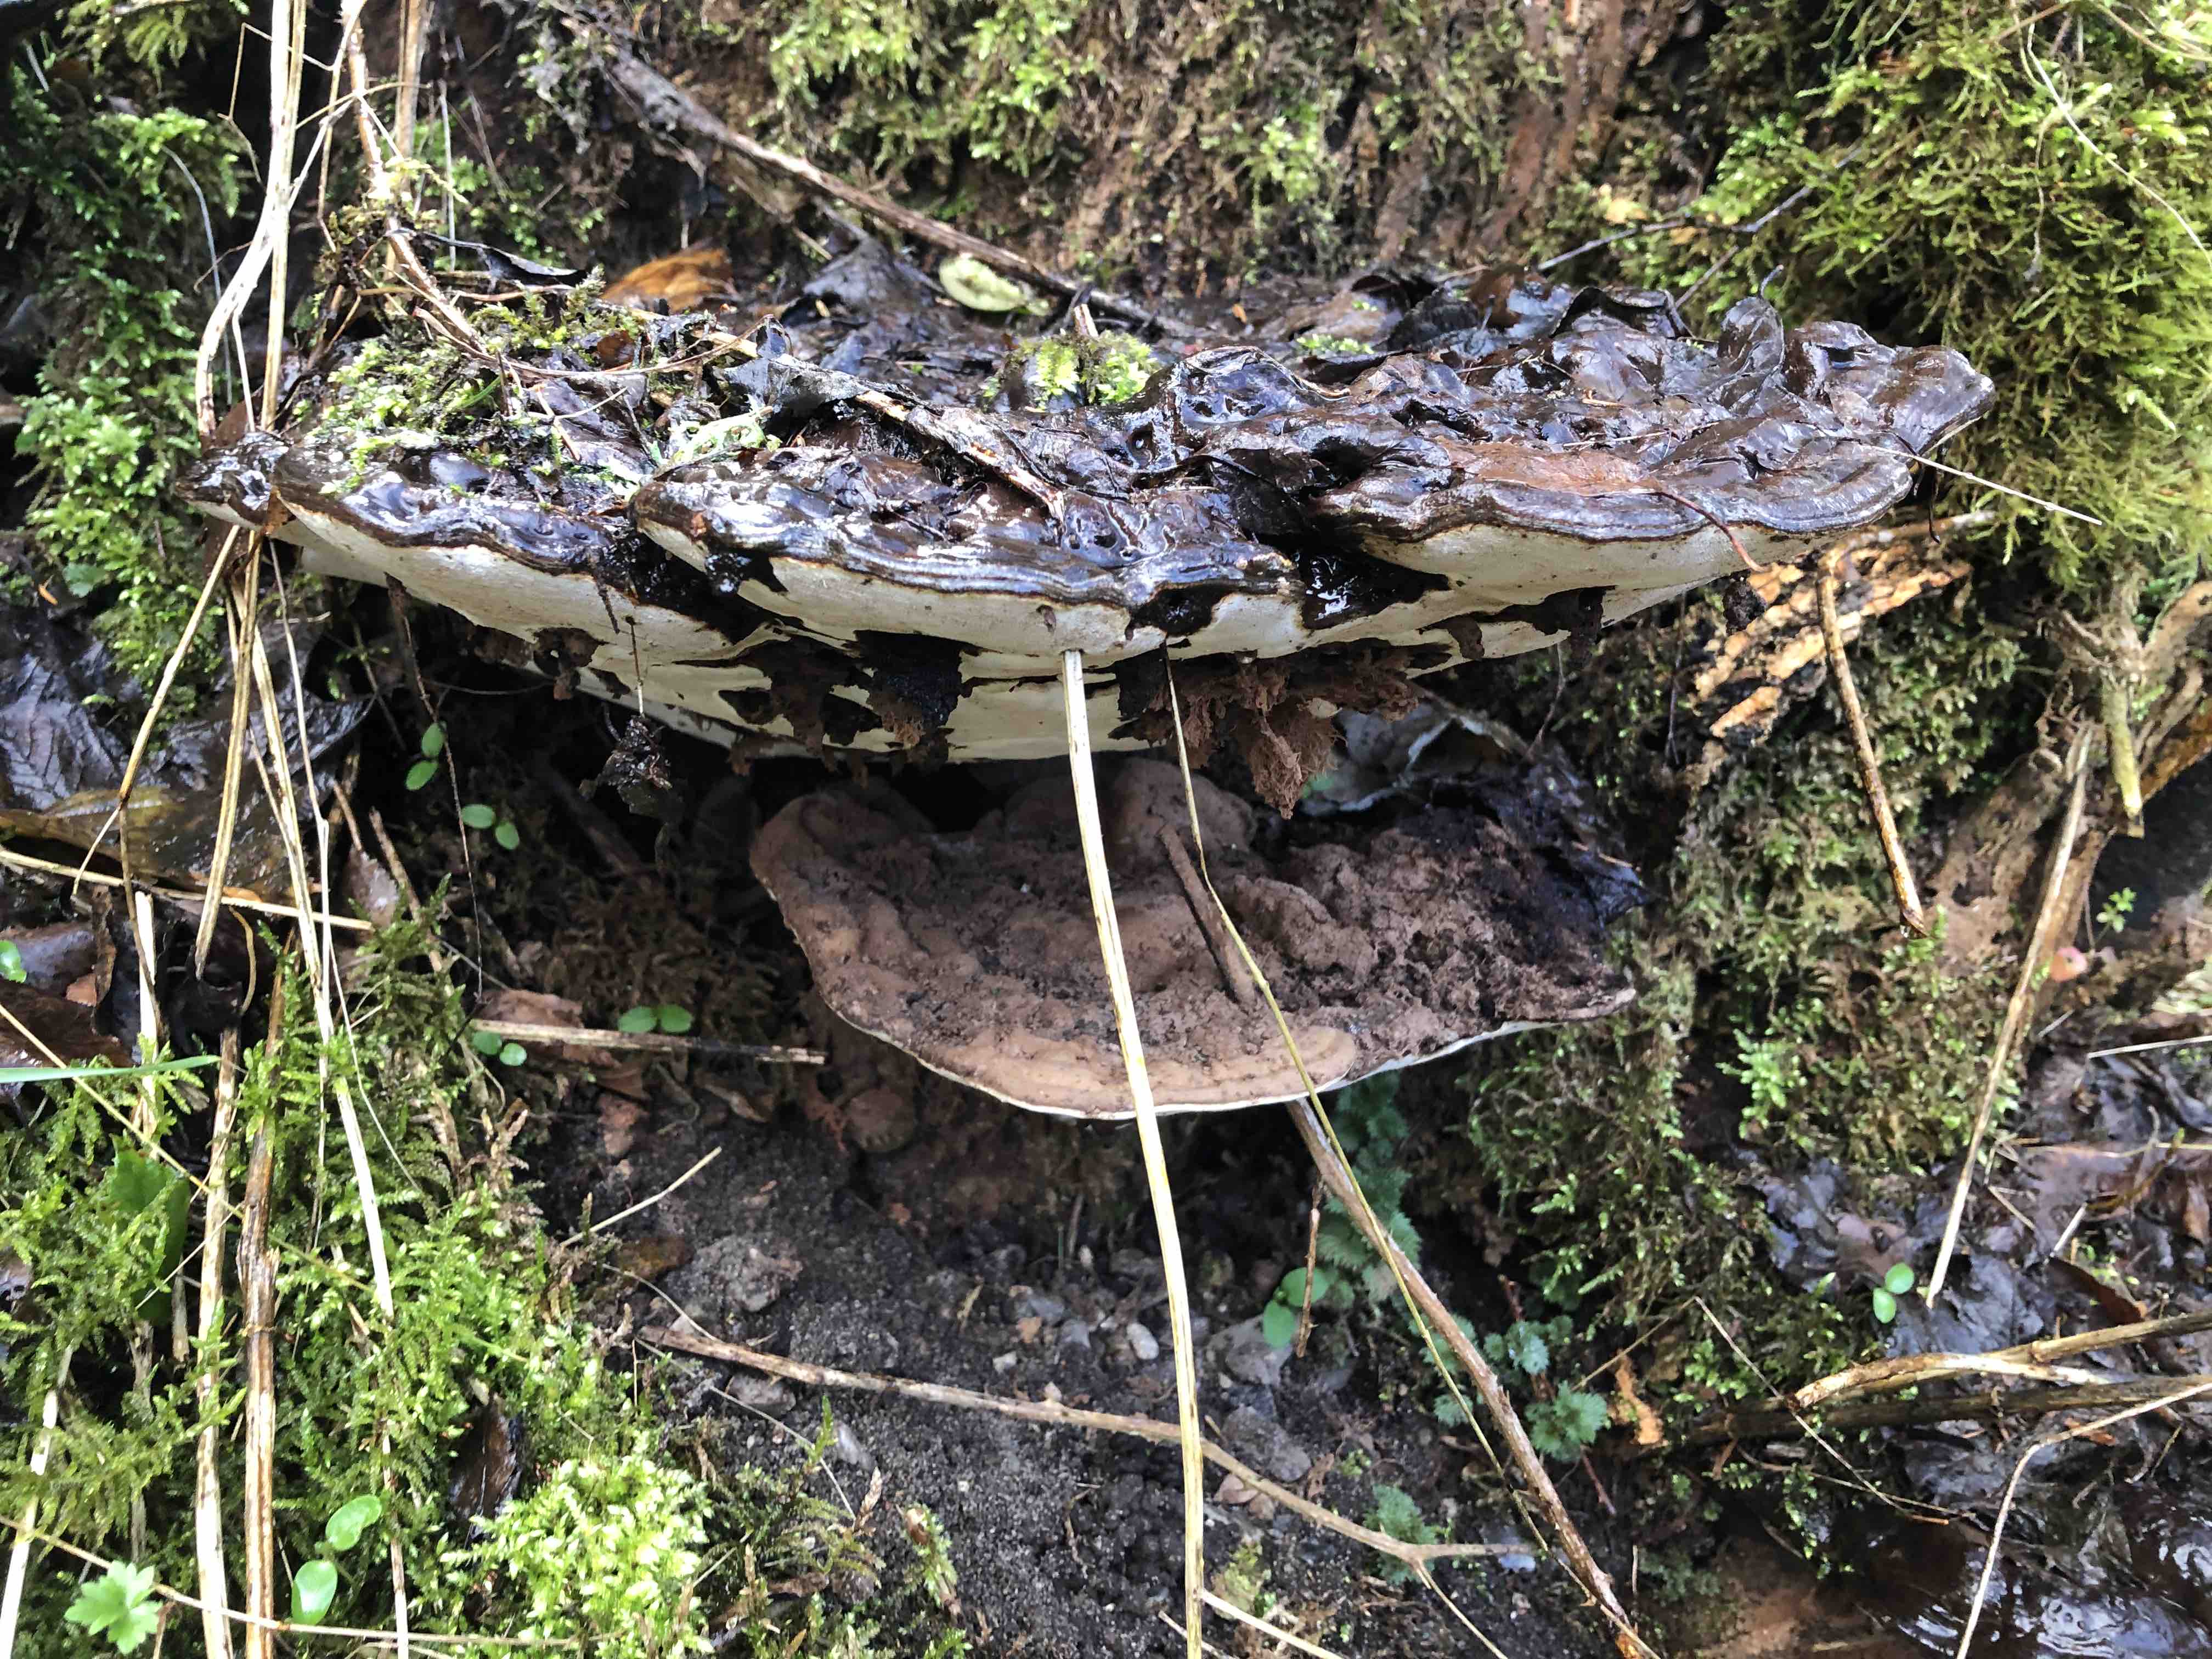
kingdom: Fungi
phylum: Basidiomycota
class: Agaricomycetes
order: Polyporales
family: Polyporaceae
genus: Ganoderma
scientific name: Ganoderma applanatum
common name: flad lakporesvamp
